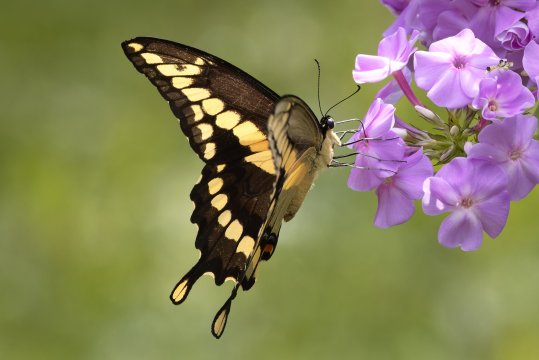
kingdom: Animalia
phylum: Arthropoda
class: Insecta
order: Lepidoptera
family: Papilionidae
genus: Papilio
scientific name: Papilio cresphontes
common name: Eastern Giant Swallowtail
